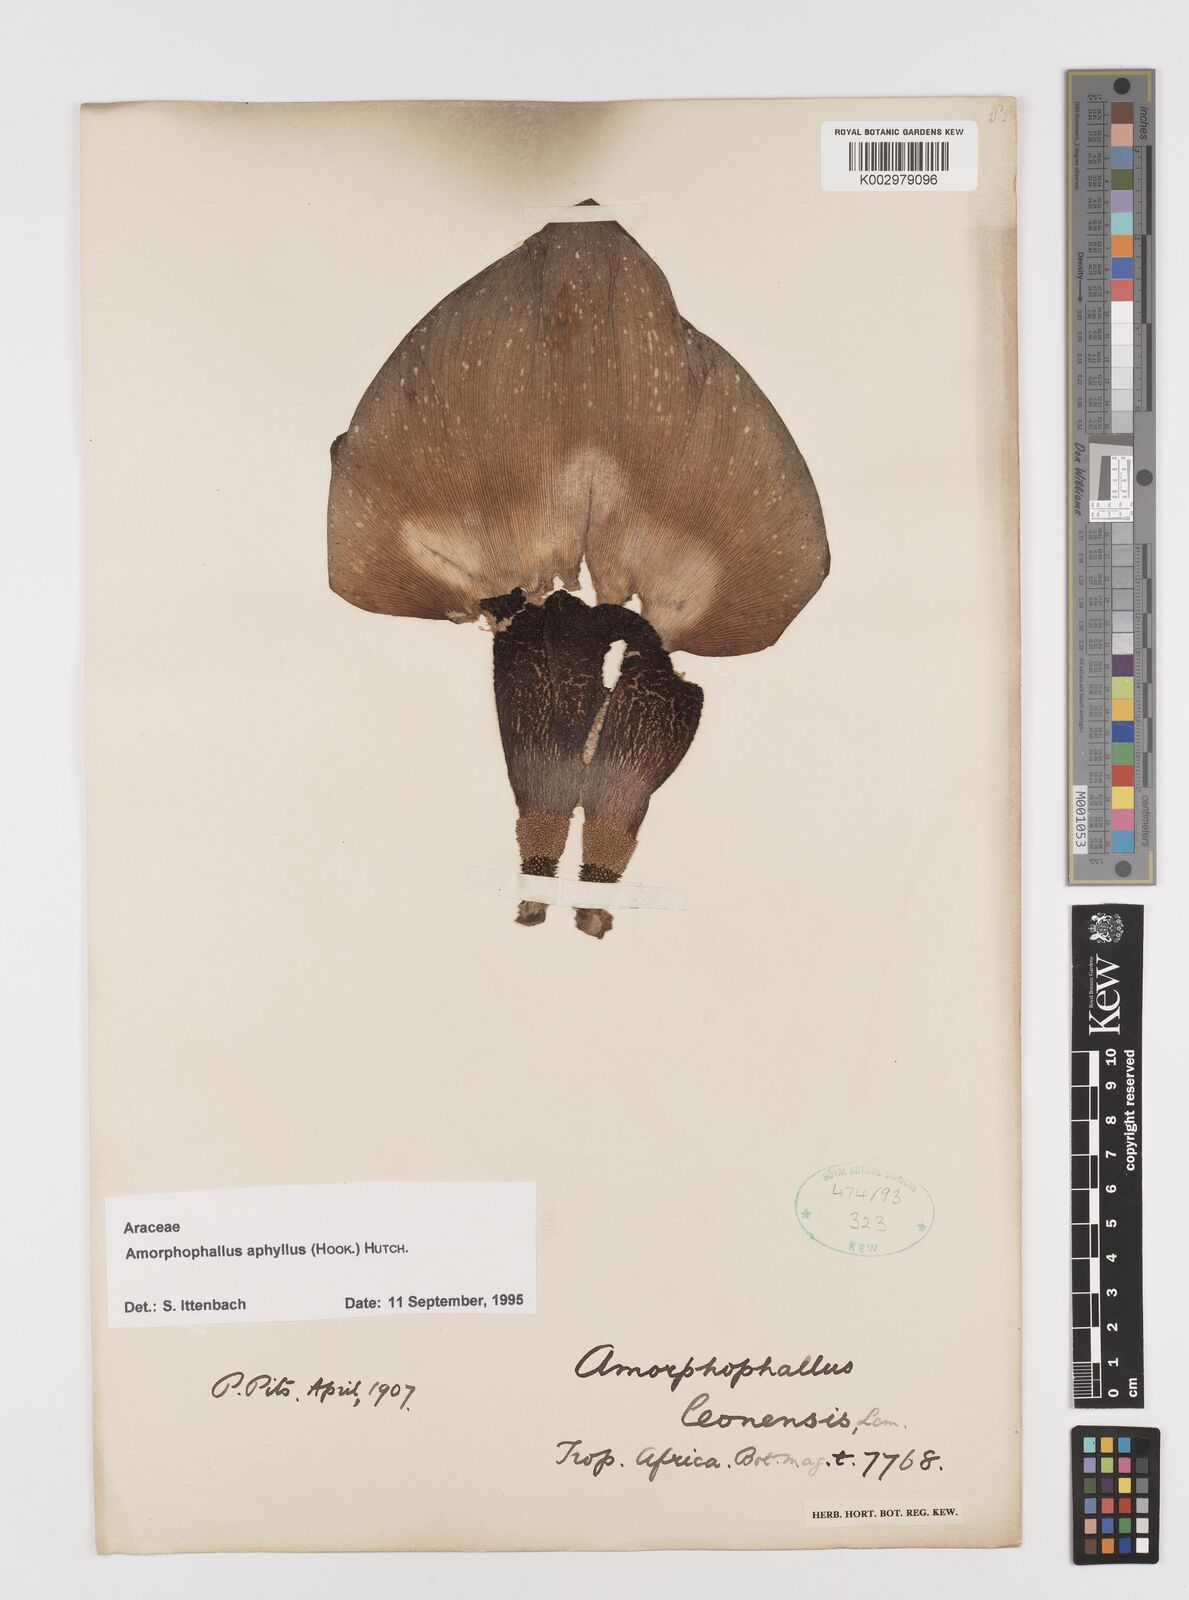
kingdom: Plantae
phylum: Tracheophyta
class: Liliopsida
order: Alismatales
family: Araceae
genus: Amorphophallus
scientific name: Amorphophallus aphyllus
